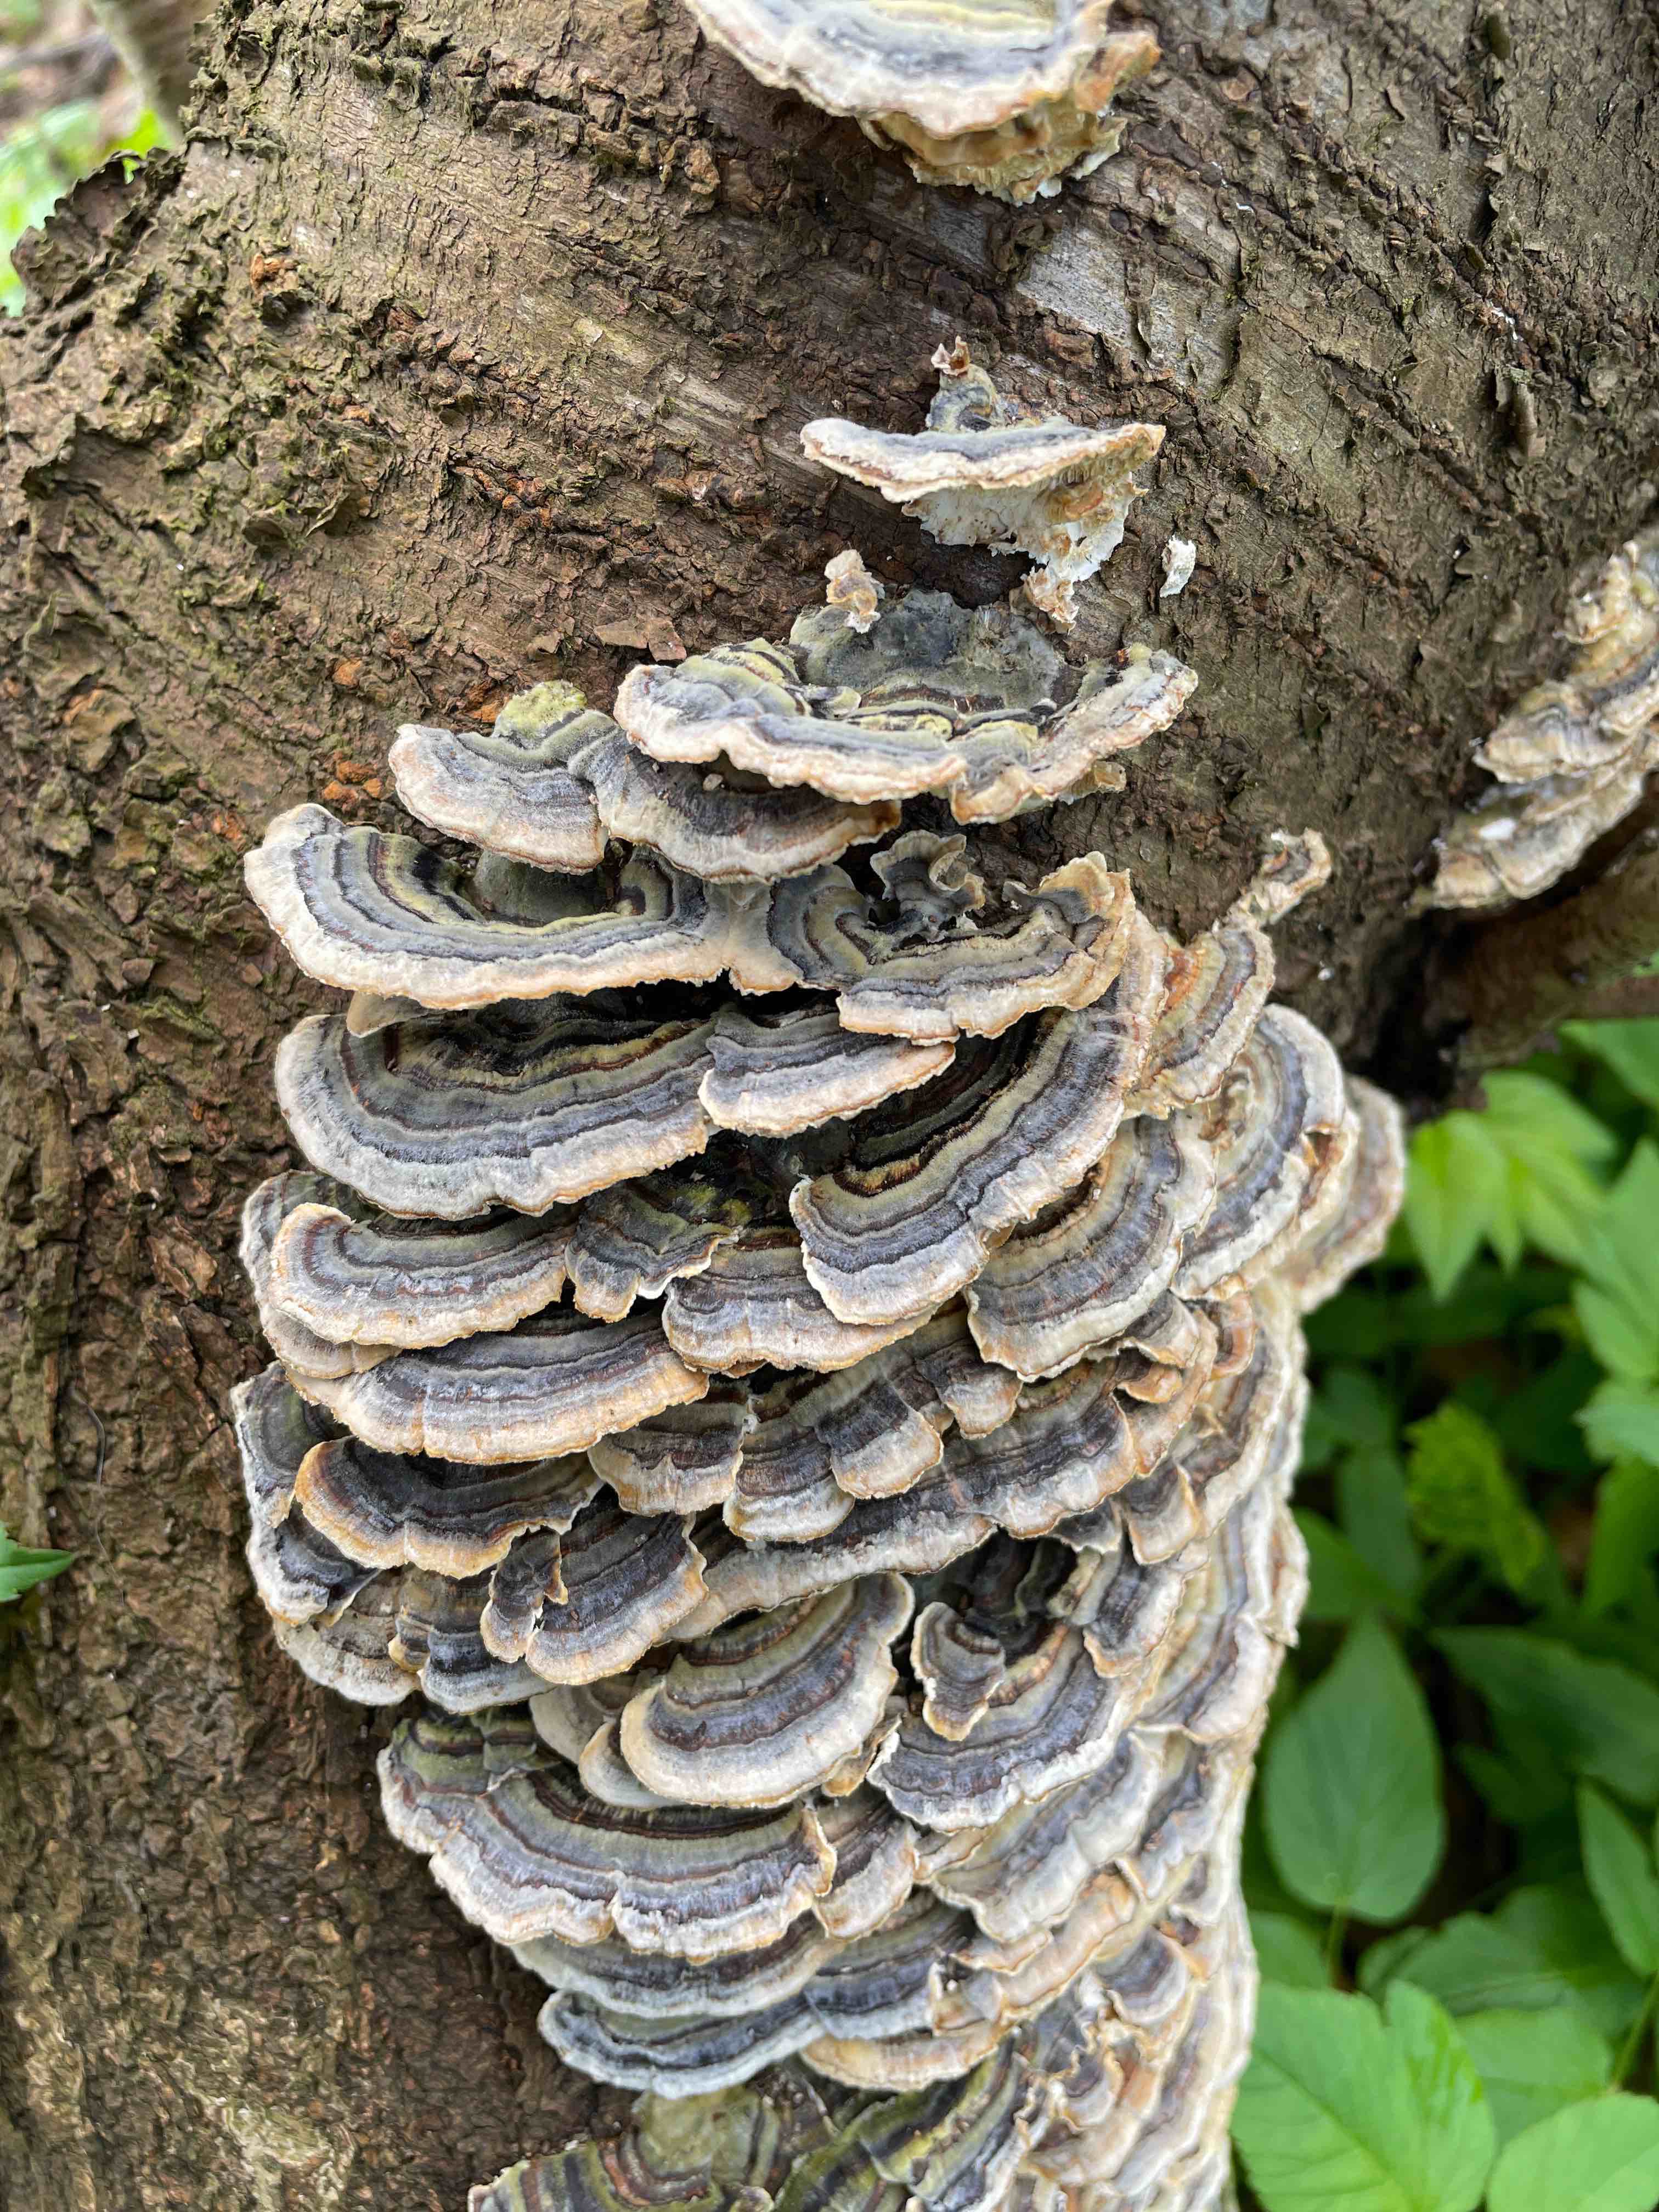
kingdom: Fungi
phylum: Basidiomycota
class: Agaricomycetes
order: Polyporales
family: Polyporaceae
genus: Trametes
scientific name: Trametes versicolor
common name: broget læderporesvamp
